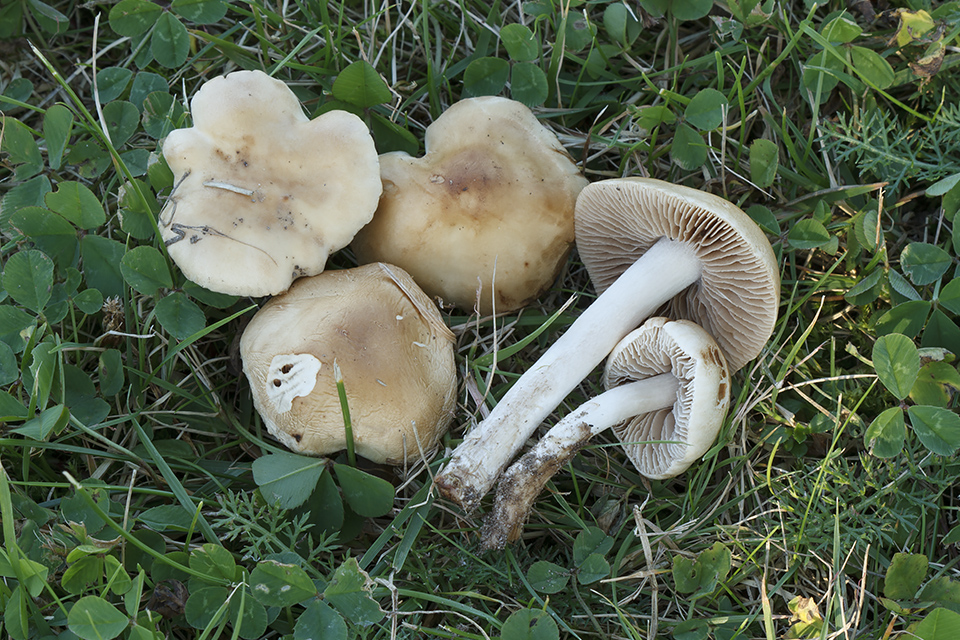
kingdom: Fungi
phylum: Basidiomycota
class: Agaricomycetes
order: Agaricales
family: Hymenogastraceae
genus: Hebeloma
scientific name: Hebeloma sacchariolens
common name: sødtduftende tåreblad
